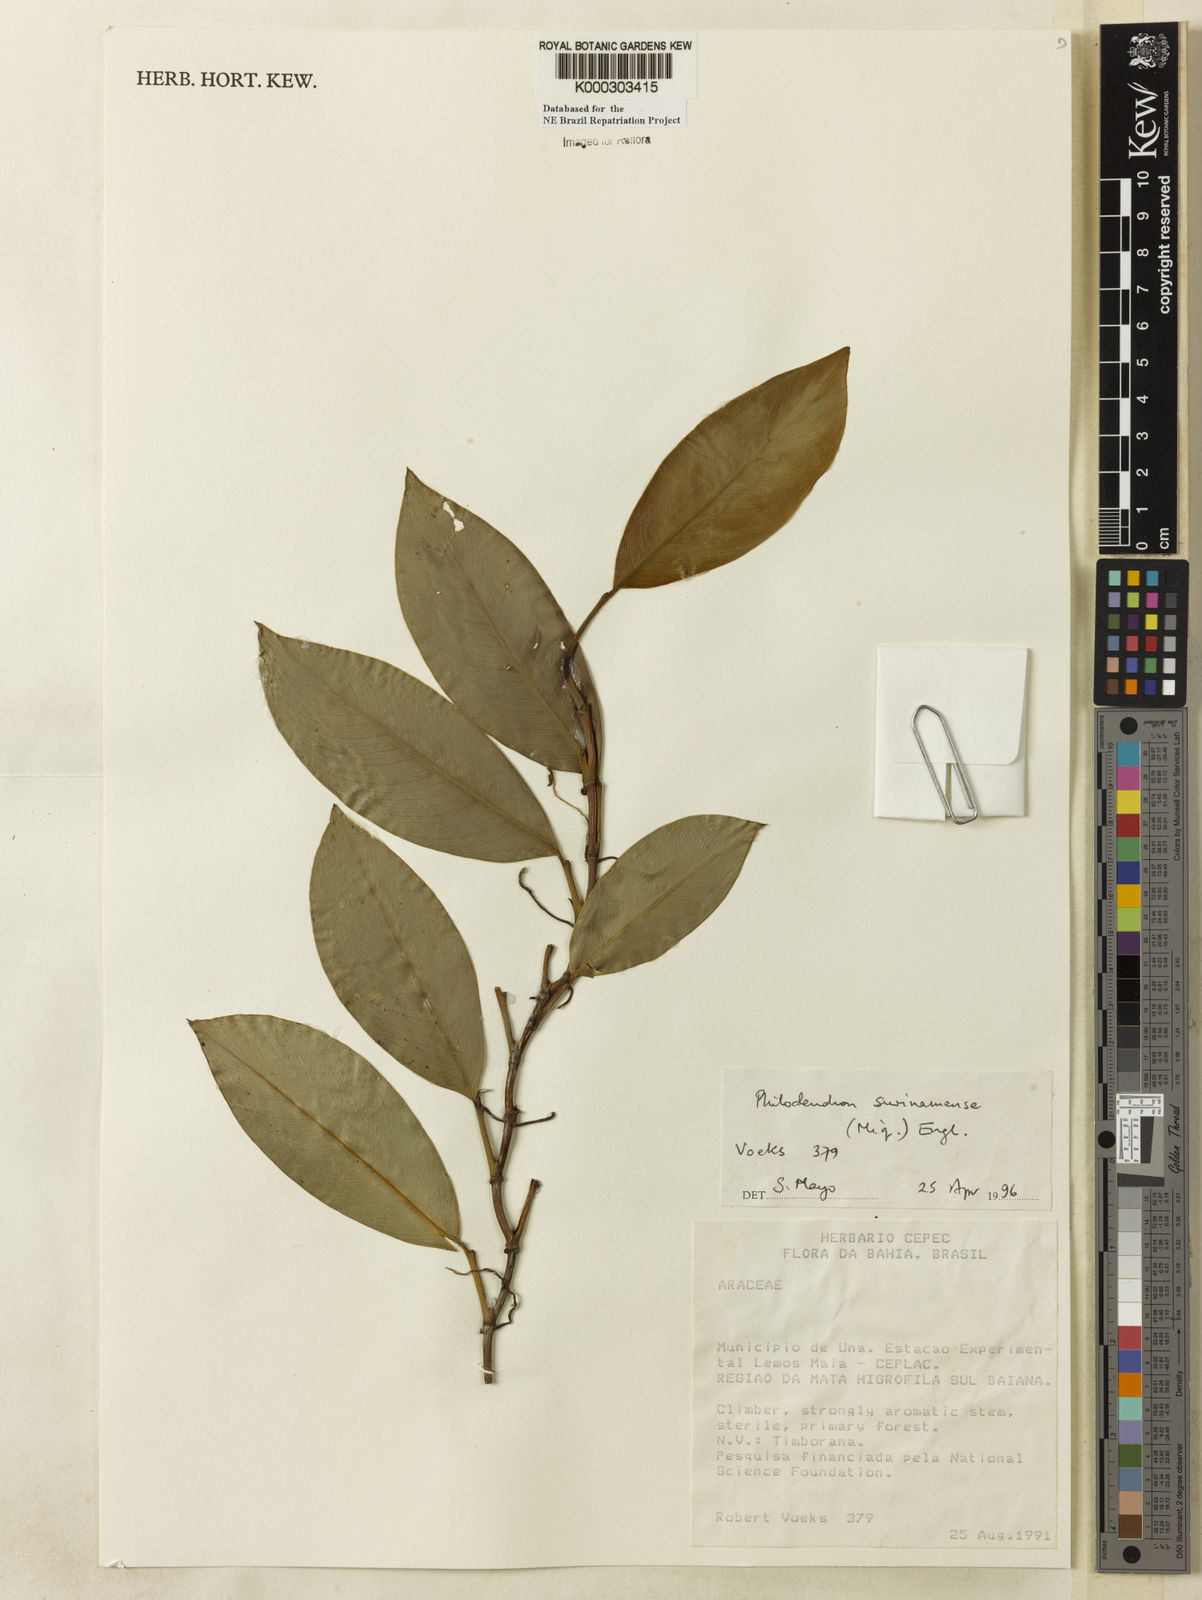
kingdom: Plantae
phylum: Tracheophyta
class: Liliopsida
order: Alismatales
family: Araceae
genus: Philodendron
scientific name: Philodendron surinamense
